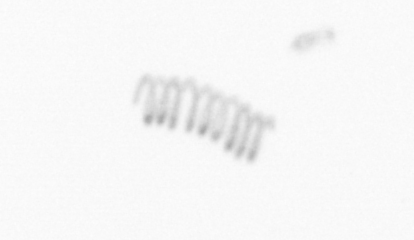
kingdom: Chromista
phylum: Ochrophyta
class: Bacillariophyceae
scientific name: Bacillariophyceae
